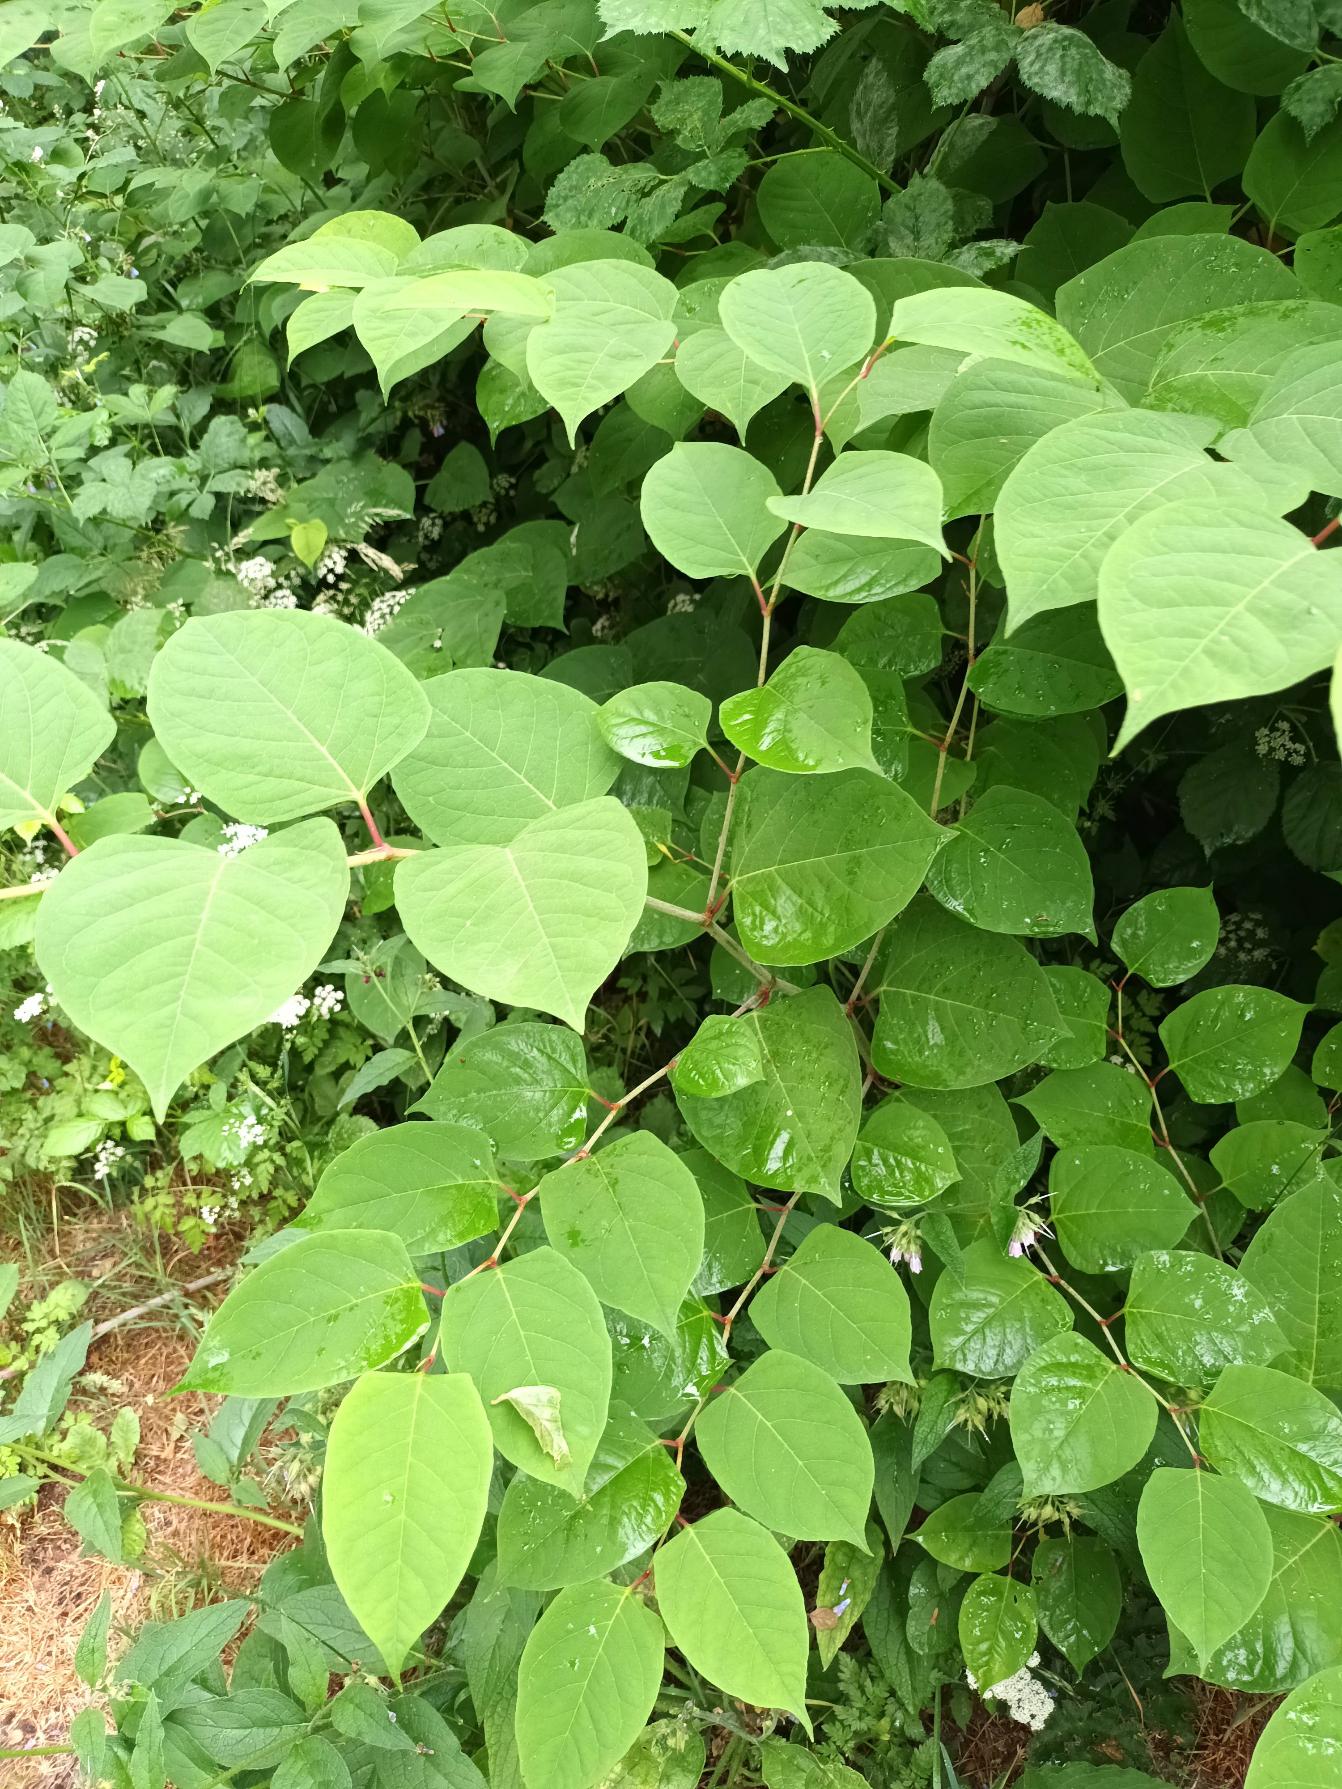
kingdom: Plantae
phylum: Tracheophyta
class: Magnoliopsida
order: Caryophyllales
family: Polygonaceae
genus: Reynoutria
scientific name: Reynoutria japonica
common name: Japan-pileurt
